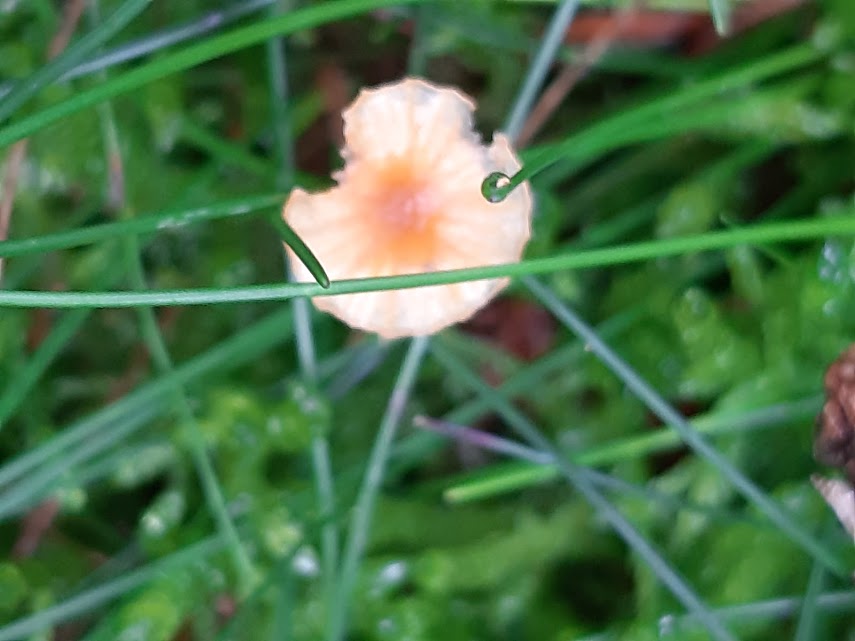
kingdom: Fungi
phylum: Basidiomycota
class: Agaricomycetes
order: Agaricales
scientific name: Agaricales
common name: champignonordenen
